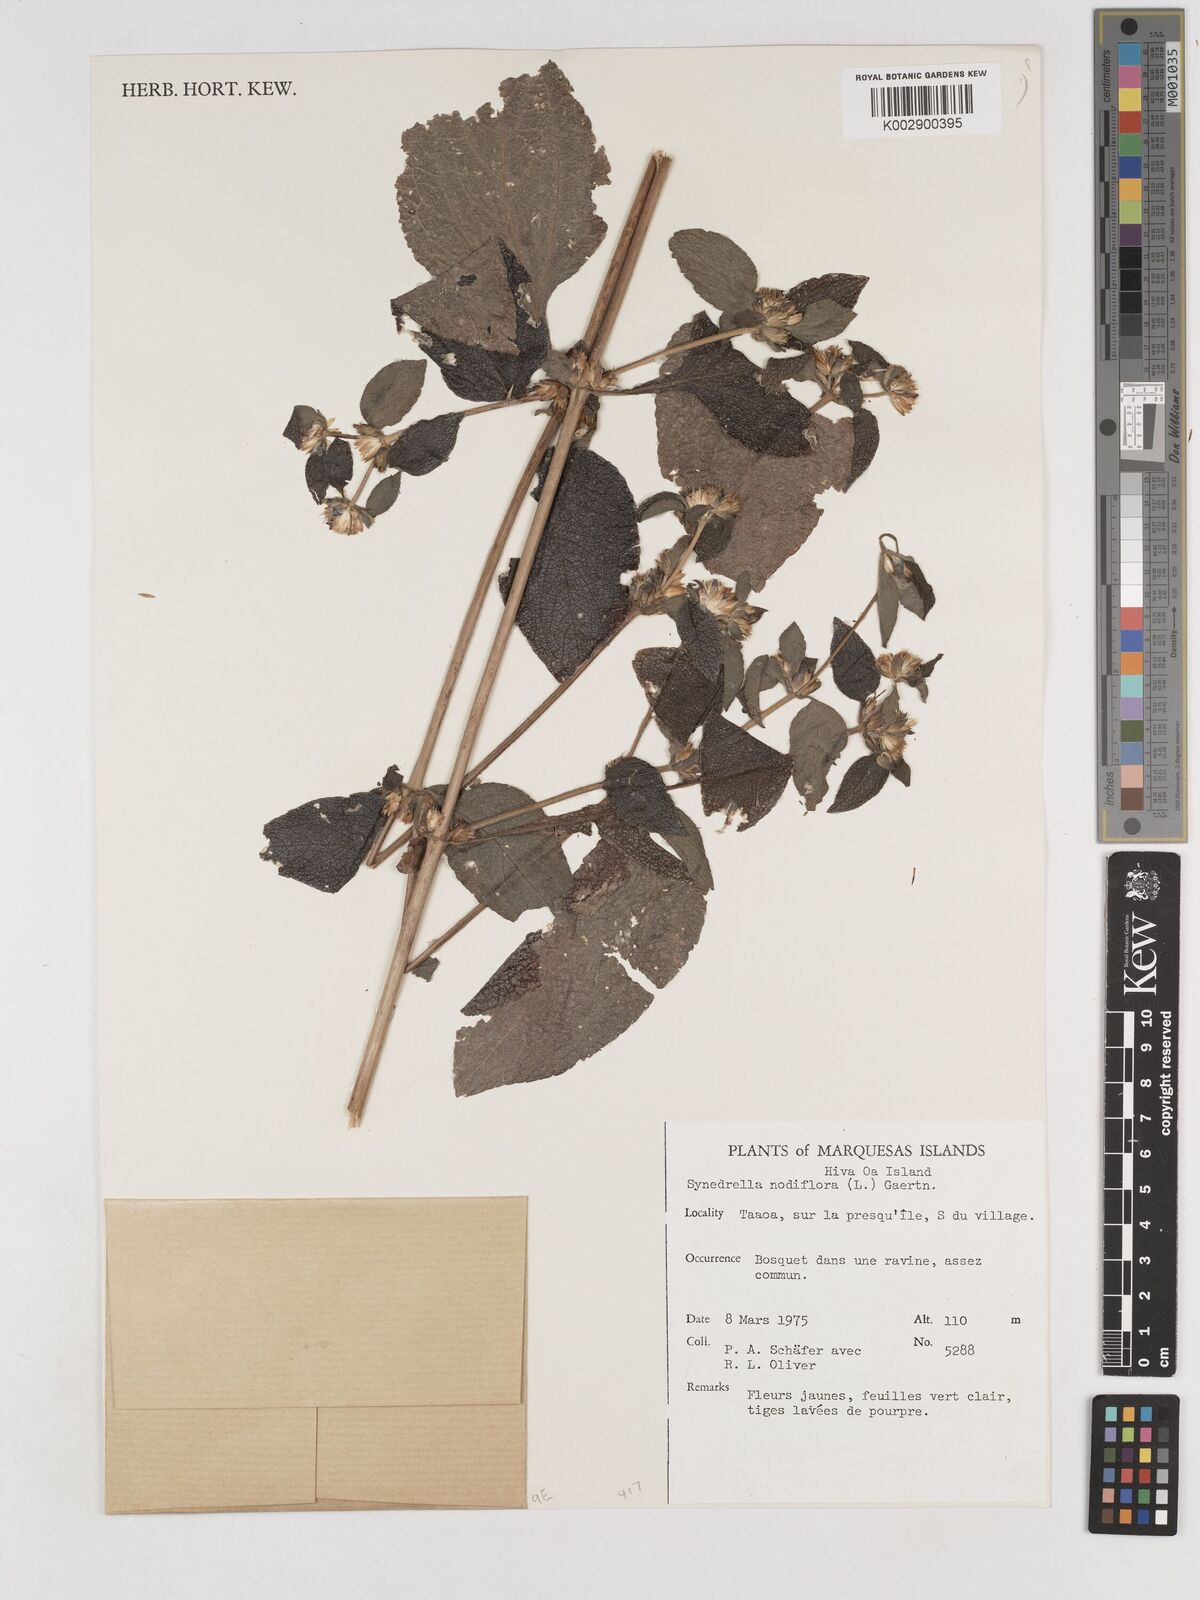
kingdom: Plantae
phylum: Tracheophyta
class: Magnoliopsida
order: Asterales
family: Asteraceae
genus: Synedrella
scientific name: Synedrella nodiflora
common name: Nodeweed
